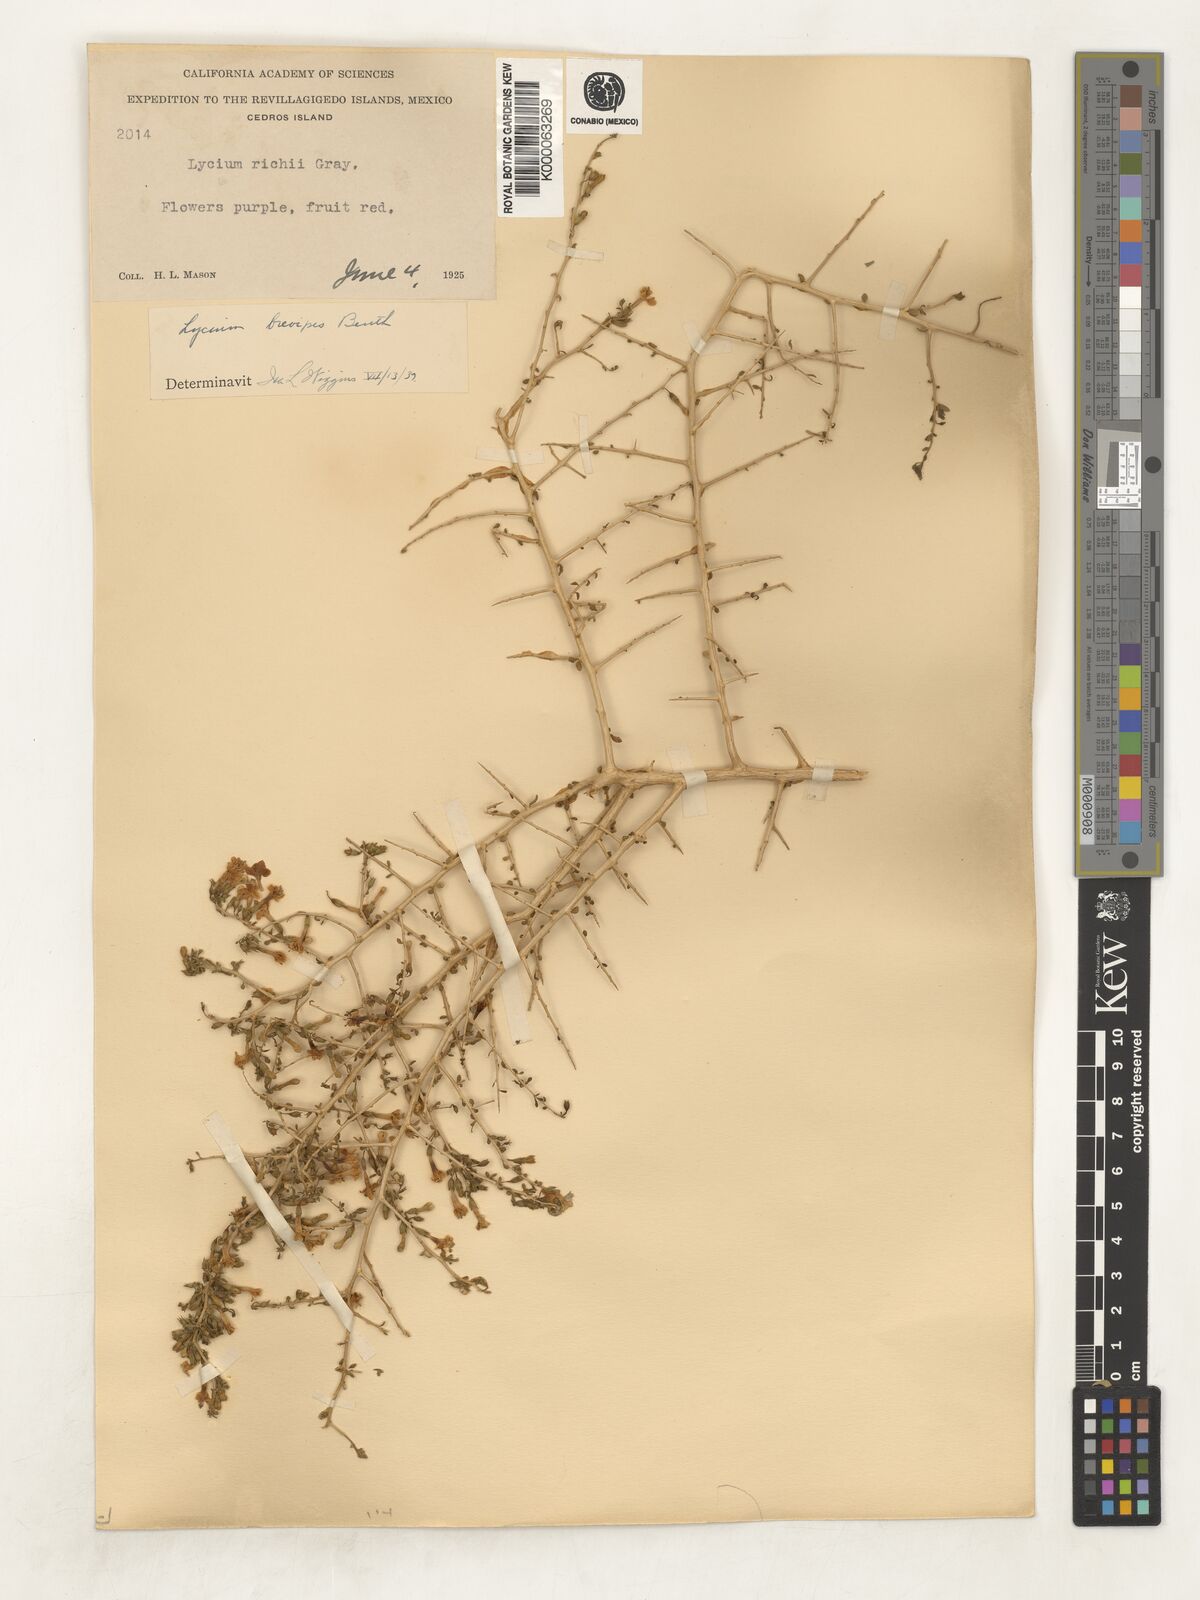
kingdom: Plantae
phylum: Tracheophyta
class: Magnoliopsida
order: Solanales
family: Solanaceae
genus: Lycium
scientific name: Lycium brevipes
